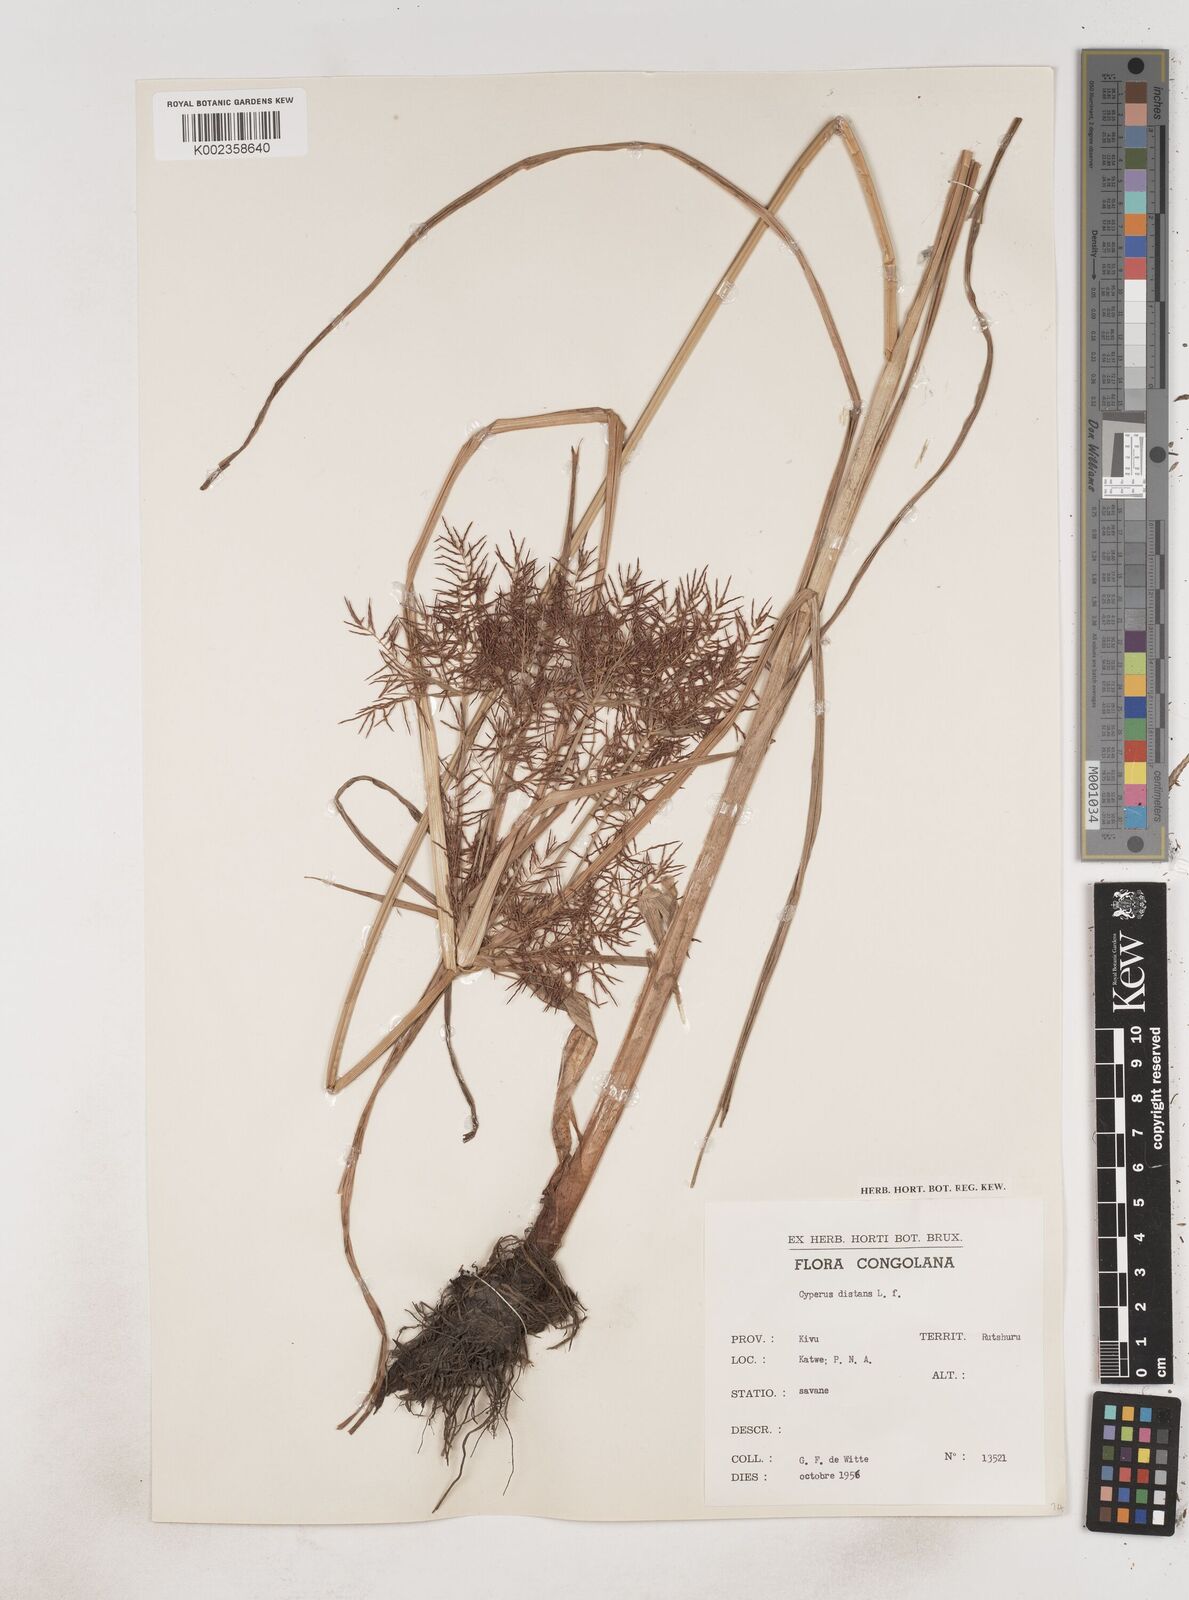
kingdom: Plantae
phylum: Tracheophyta
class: Liliopsida
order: Poales
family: Cyperaceae
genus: Cyperus
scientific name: Cyperus distans
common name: Slender cyperus
